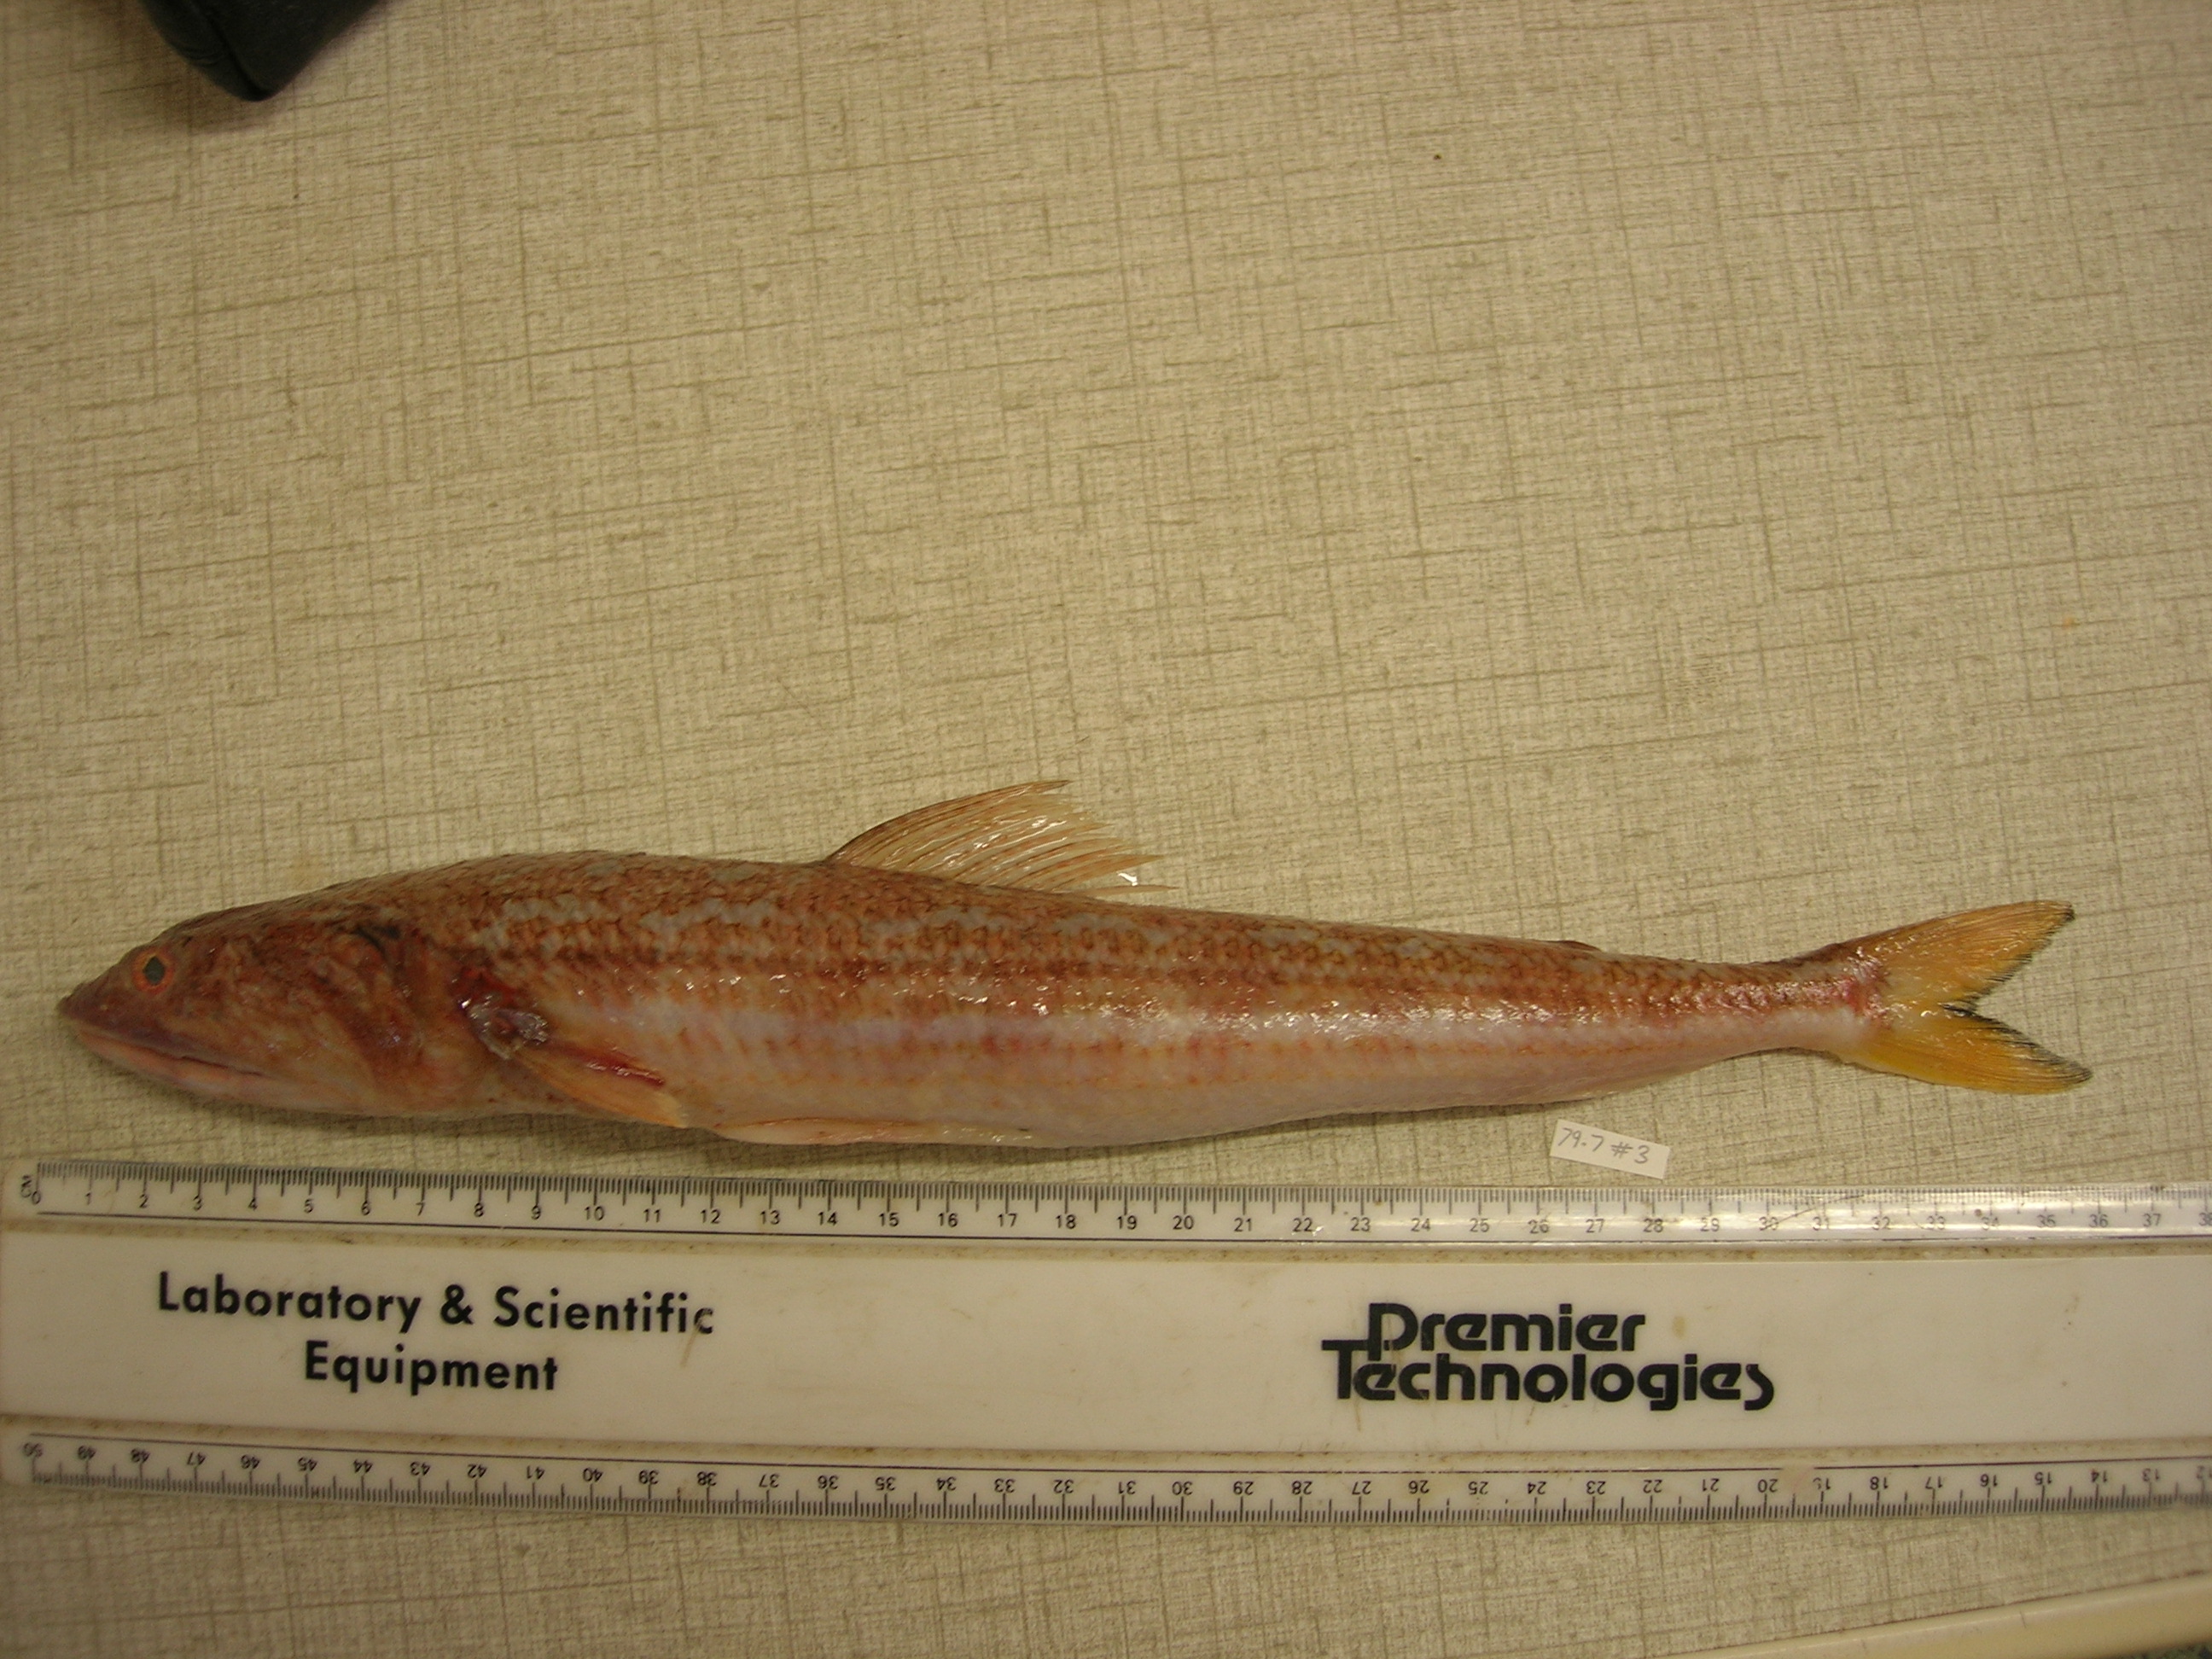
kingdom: Animalia
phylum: Chordata
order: Aulopiformes
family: Synodontidae
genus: Synodus
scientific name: Synodus indicus
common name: Indian lizardfish
